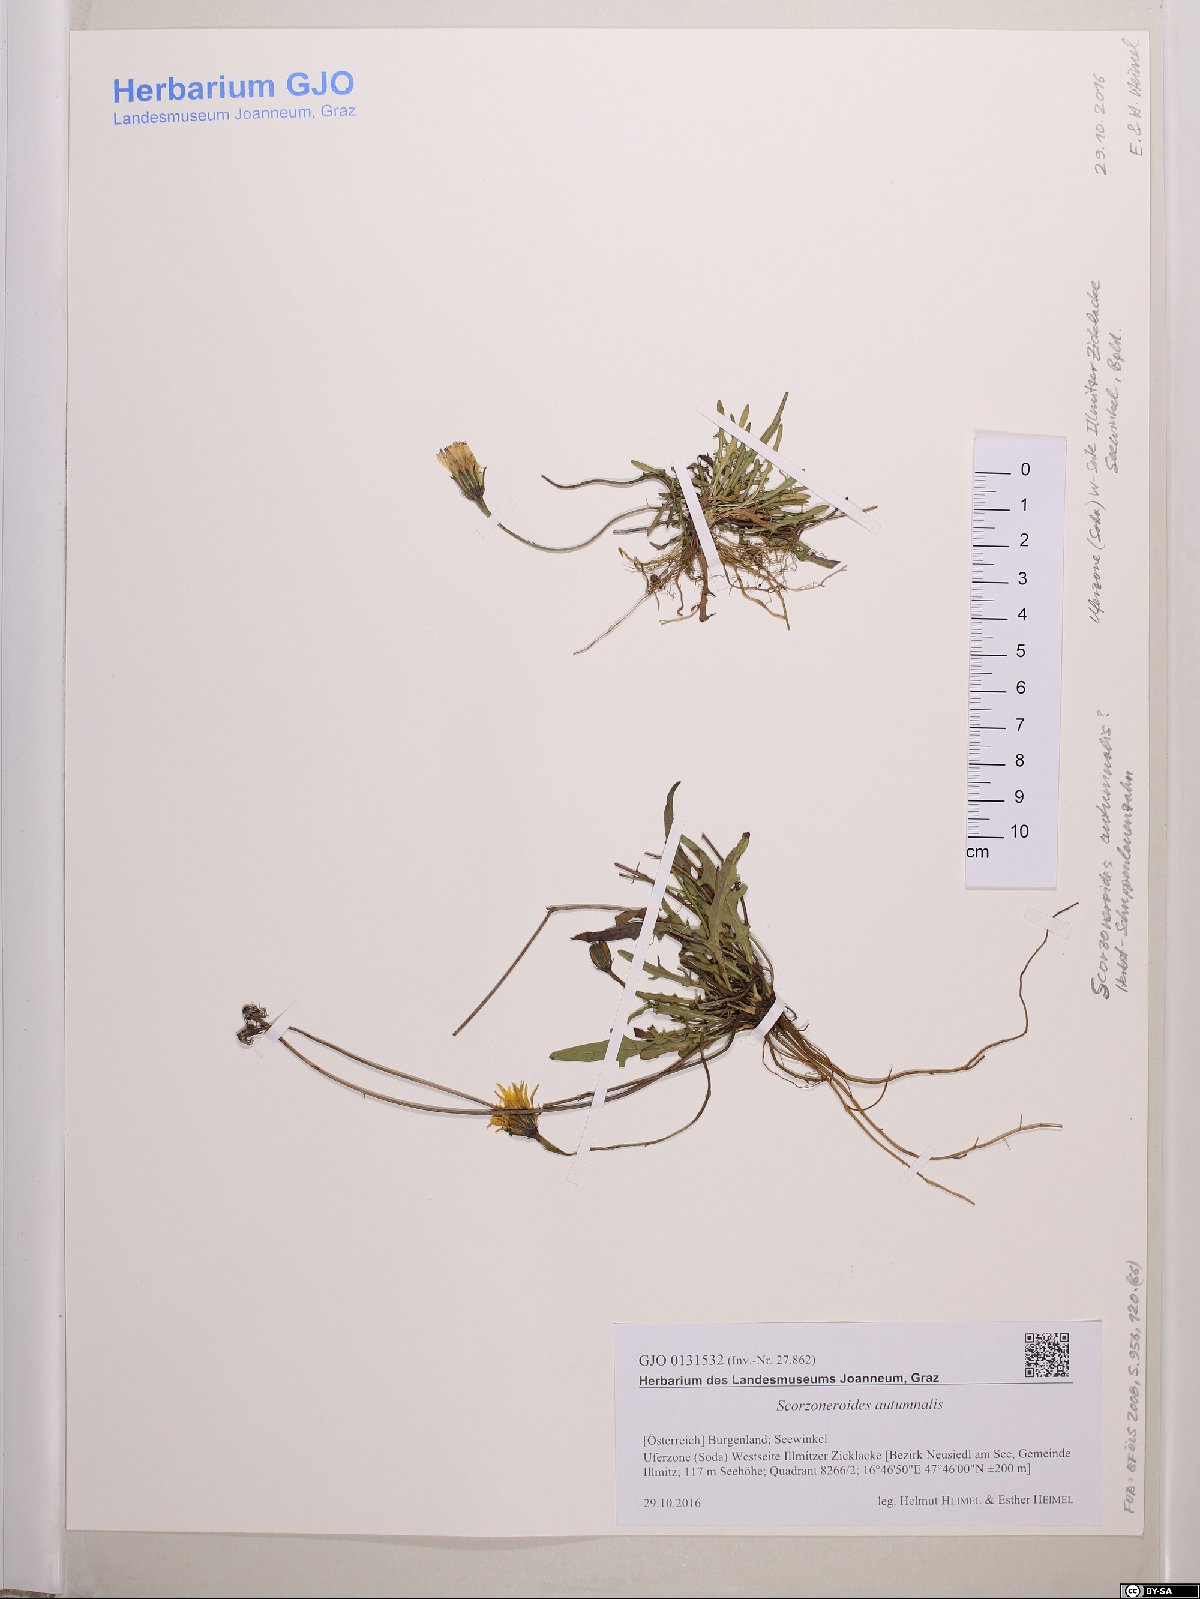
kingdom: Plantae
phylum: Tracheophyta
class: Magnoliopsida
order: Asterales
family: Asteraceae
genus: Scorzoneroides
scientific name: Scorzoneroides autumnalis
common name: Autumn hawkbit
